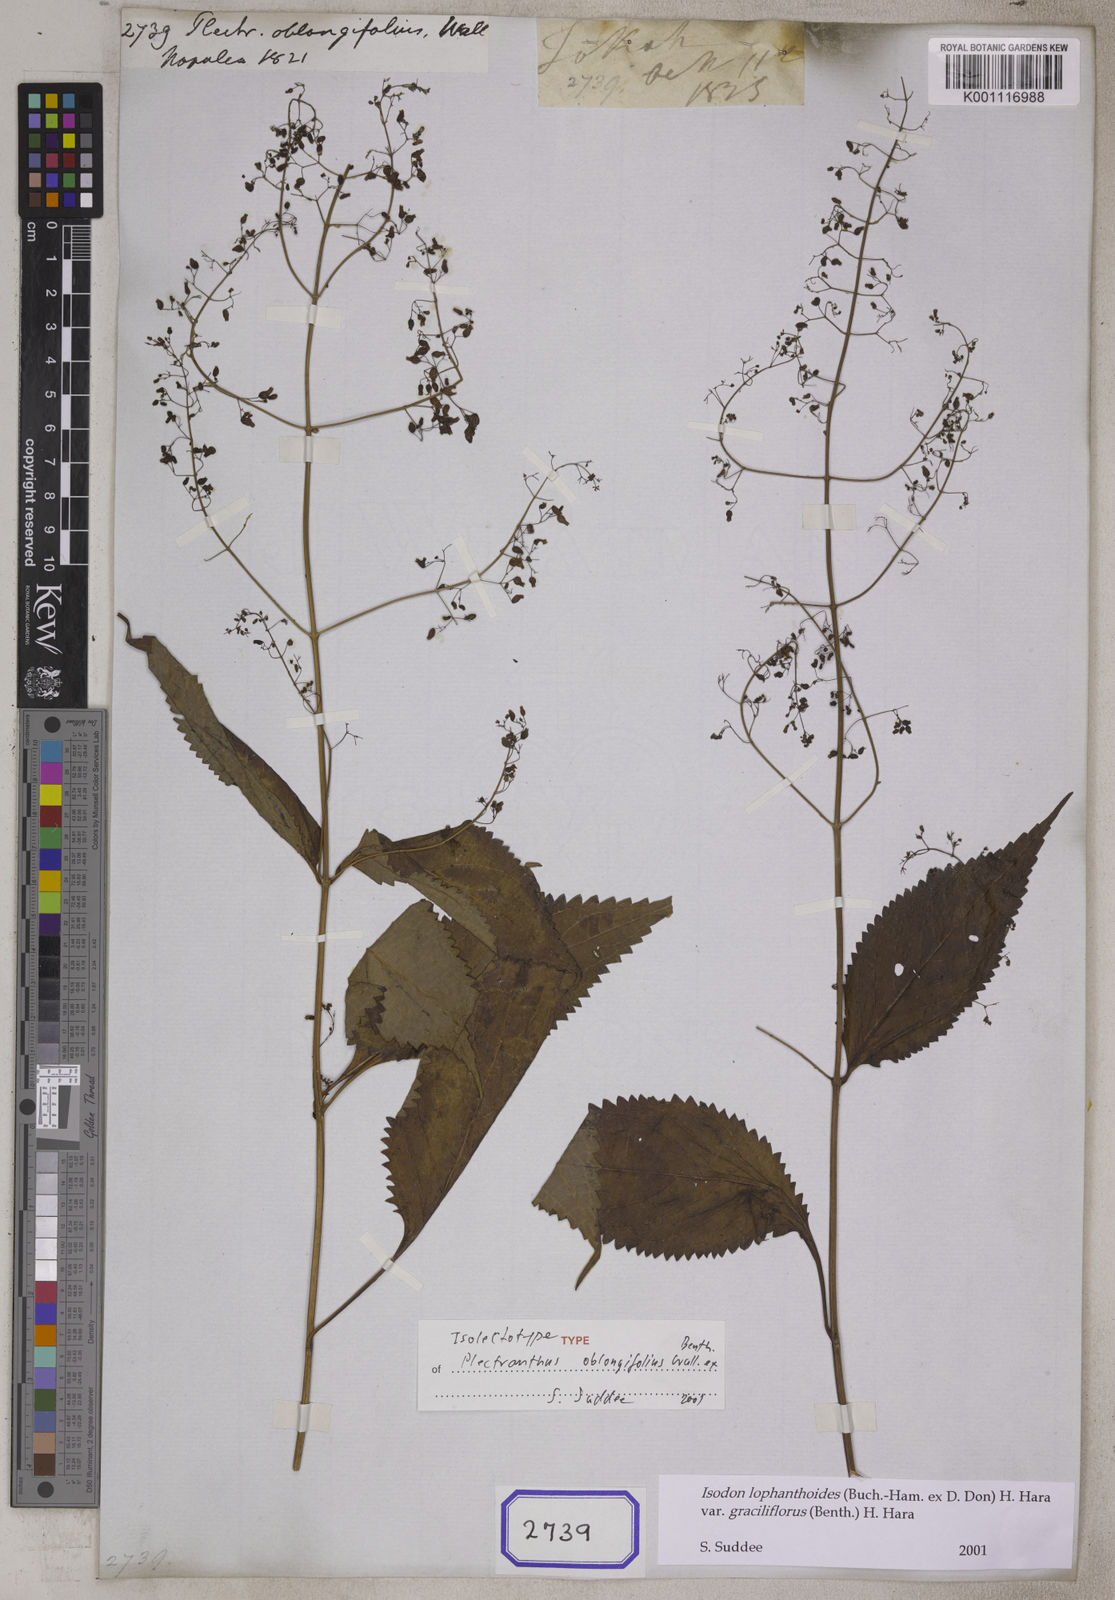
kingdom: Plantae
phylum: Tracheophyta
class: Magnoliopsida
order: Lamiales
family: Lamiaceae
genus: Plectranthus
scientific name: Plectranthus
